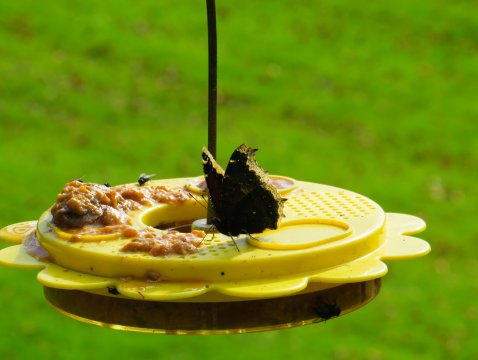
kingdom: Animalia
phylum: Arthropoda
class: Insecta
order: Lepidoptera
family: Nymphalidae
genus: Nymphalis
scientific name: Nymphalis antiopa
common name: Mourning Cloak
